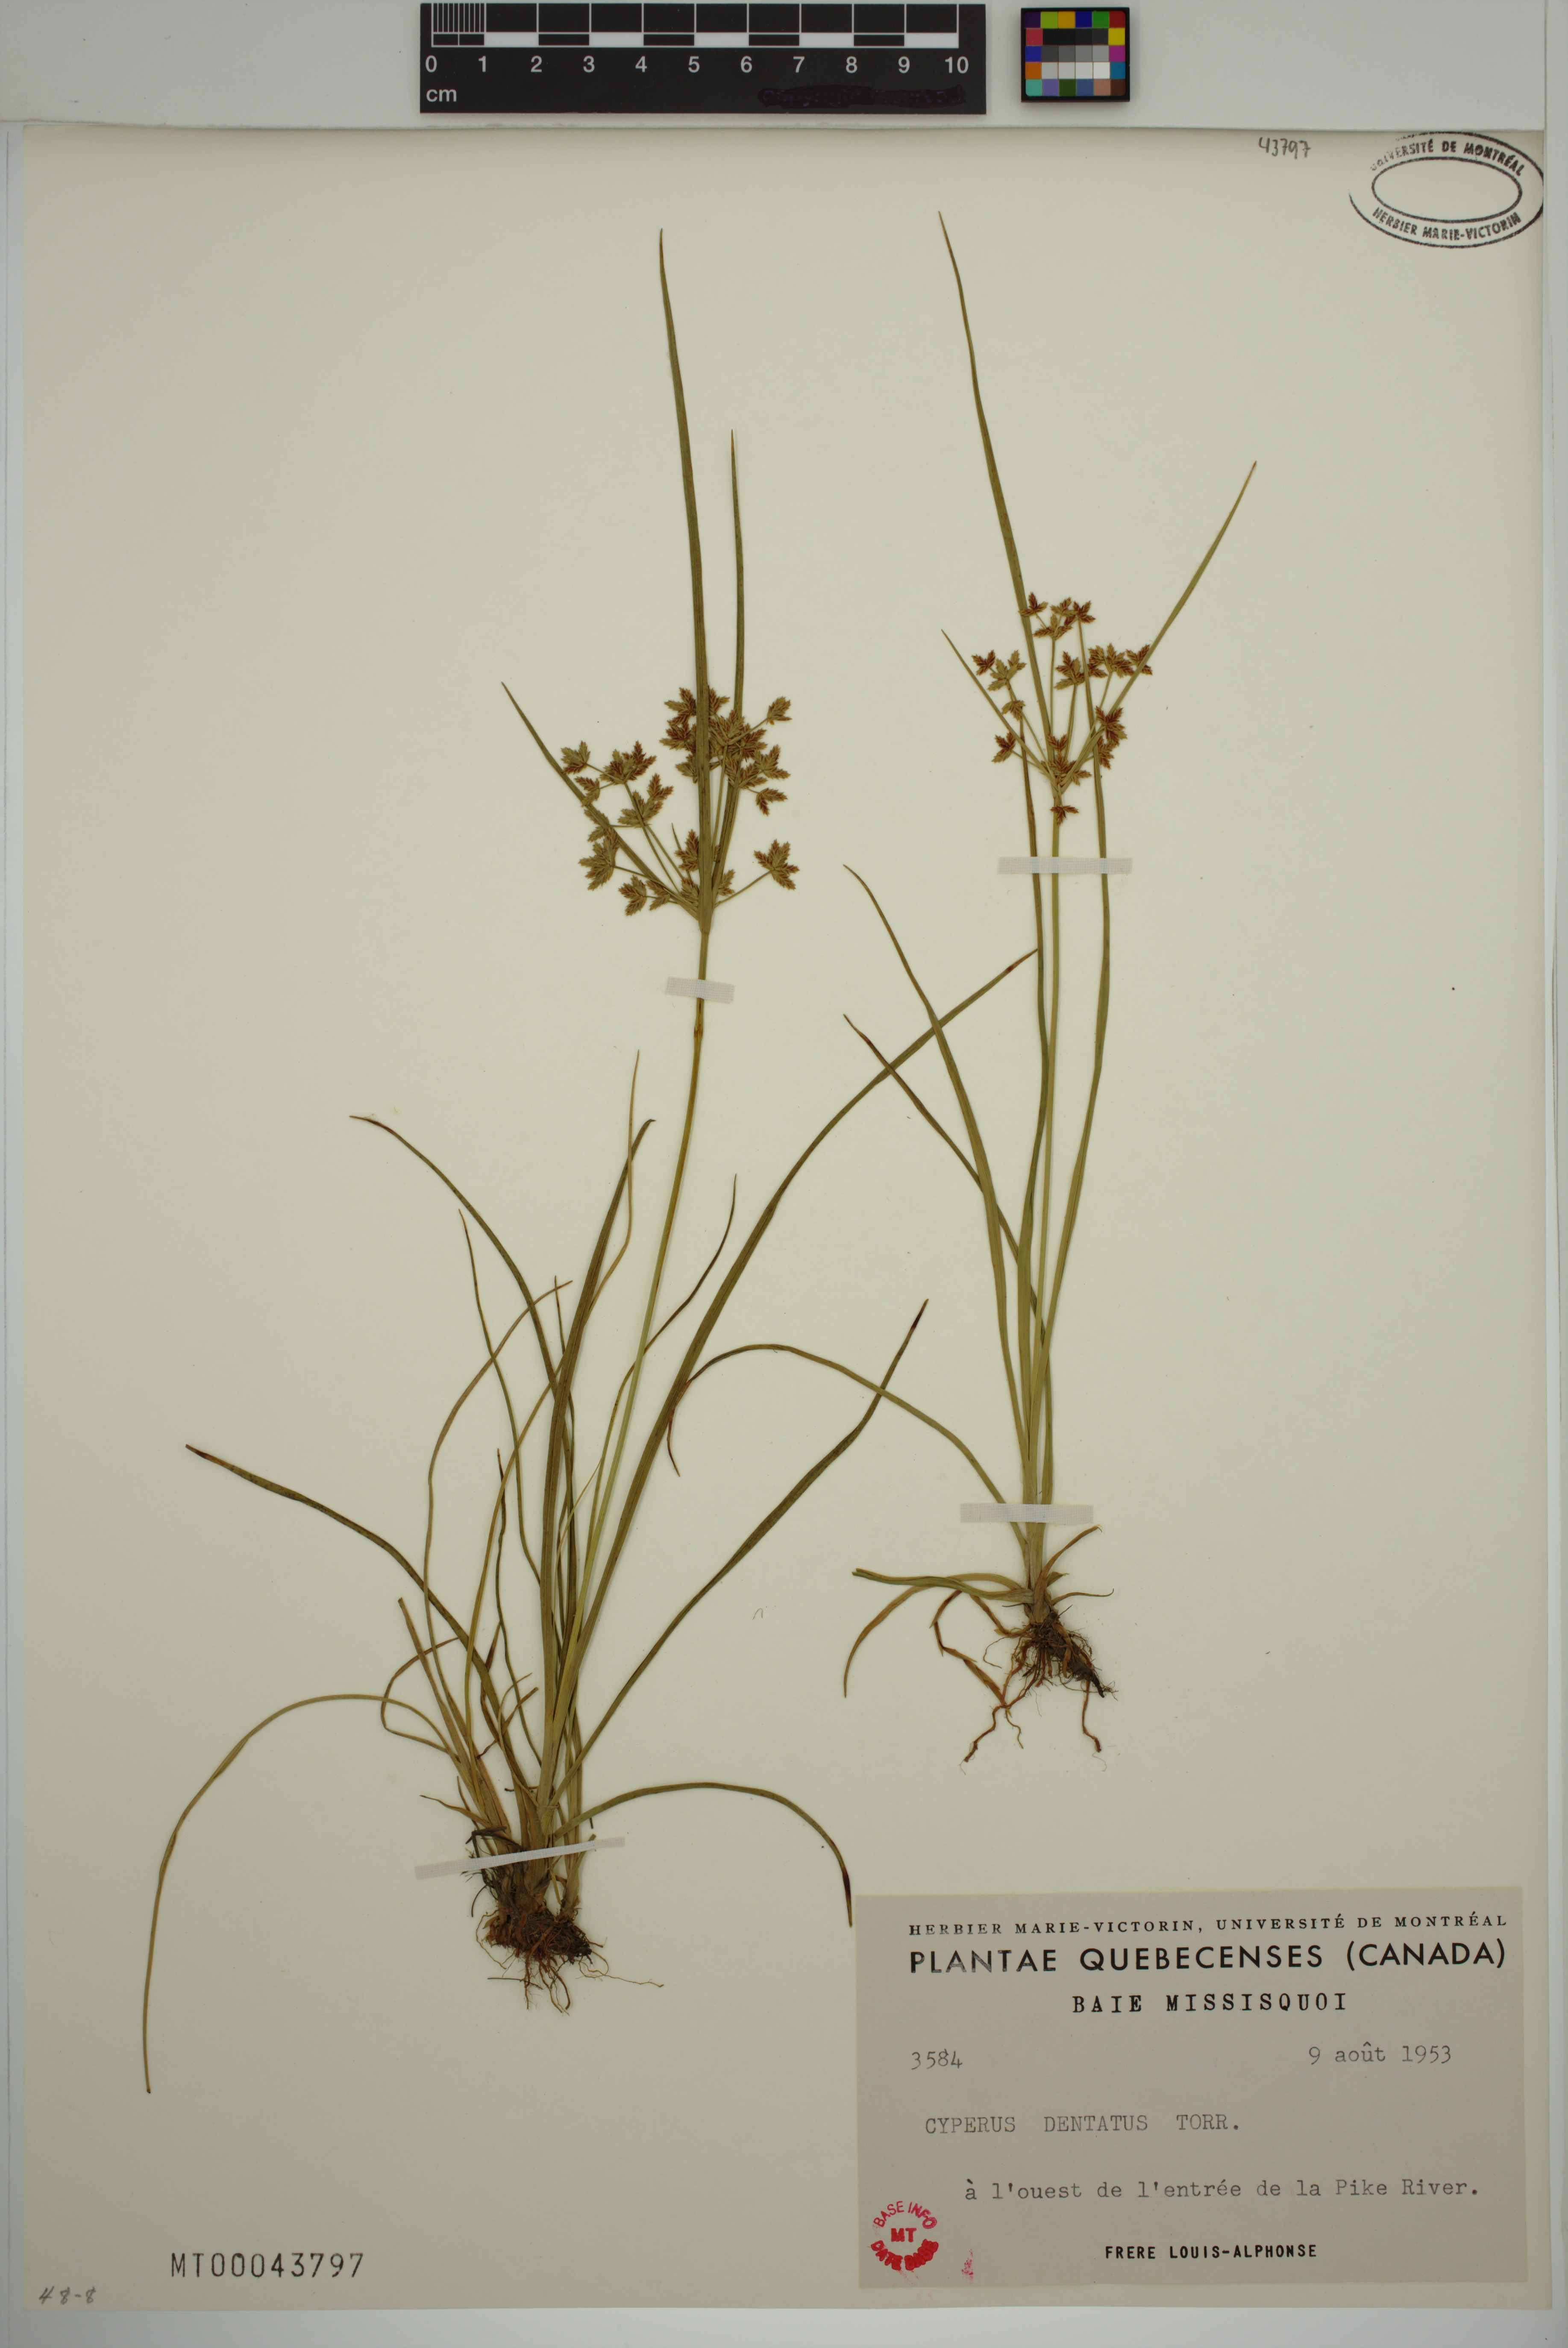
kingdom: Plantae
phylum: Tracheophyta
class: Liliopsida
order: Poales
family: Cyperaceae
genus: Cyperus
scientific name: Cyperus dentatus
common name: Dentate umbrella sedge
